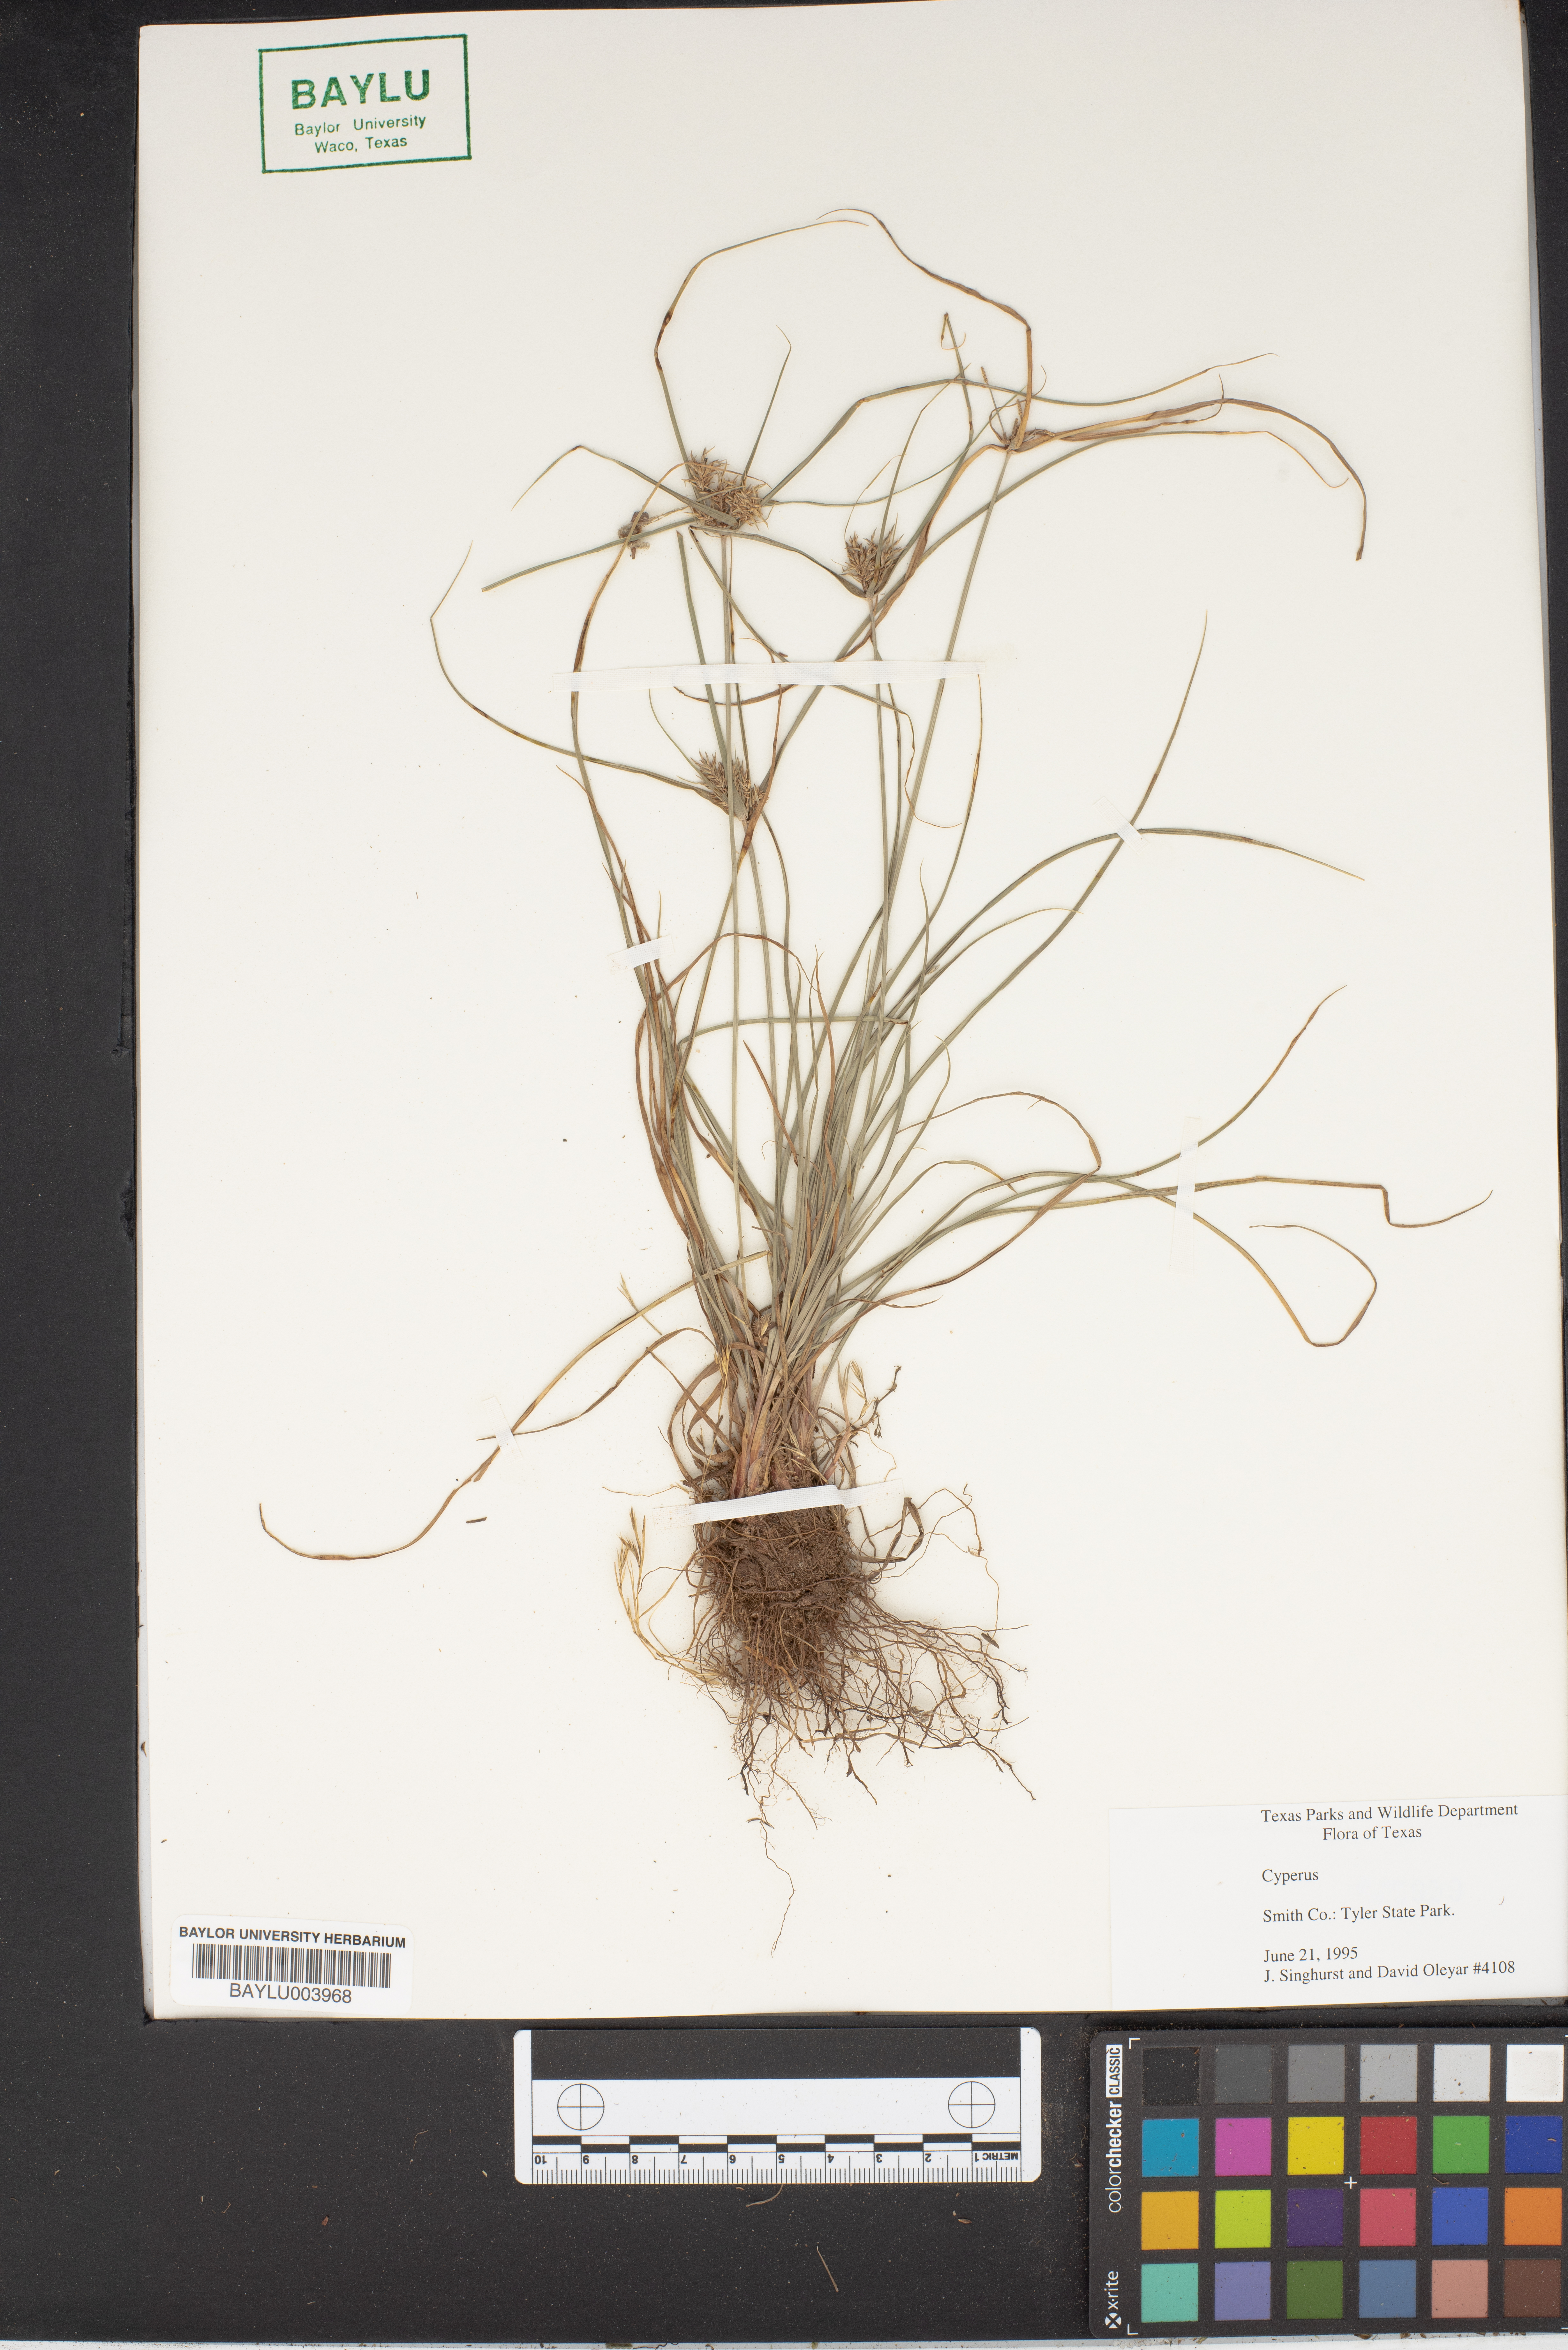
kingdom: Plantae
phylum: Tracheophyta
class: Liliopsida
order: Poales
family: Cyperaceae
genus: Cyperus
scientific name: Cyperus
